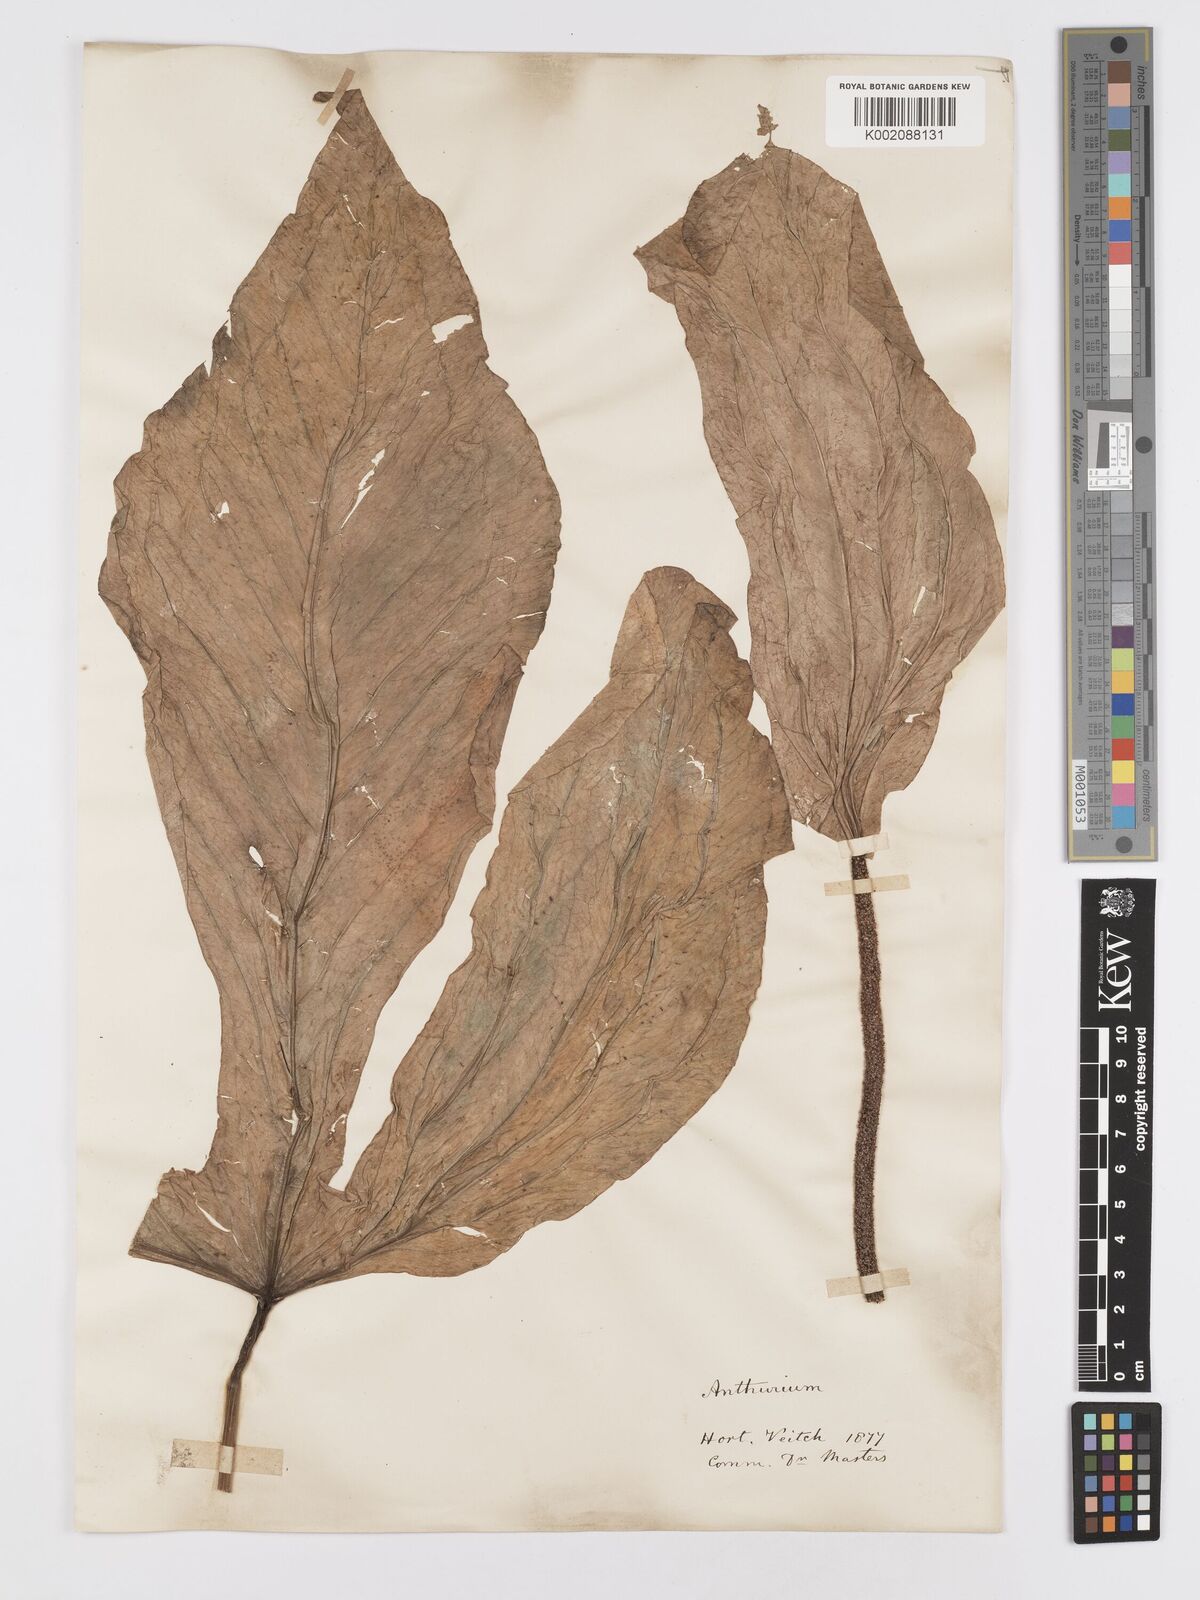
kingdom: Plantae
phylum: Tracheophyta
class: Liliopsida
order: Alismatales
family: Araceae
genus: Anthurium
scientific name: Anthurium
